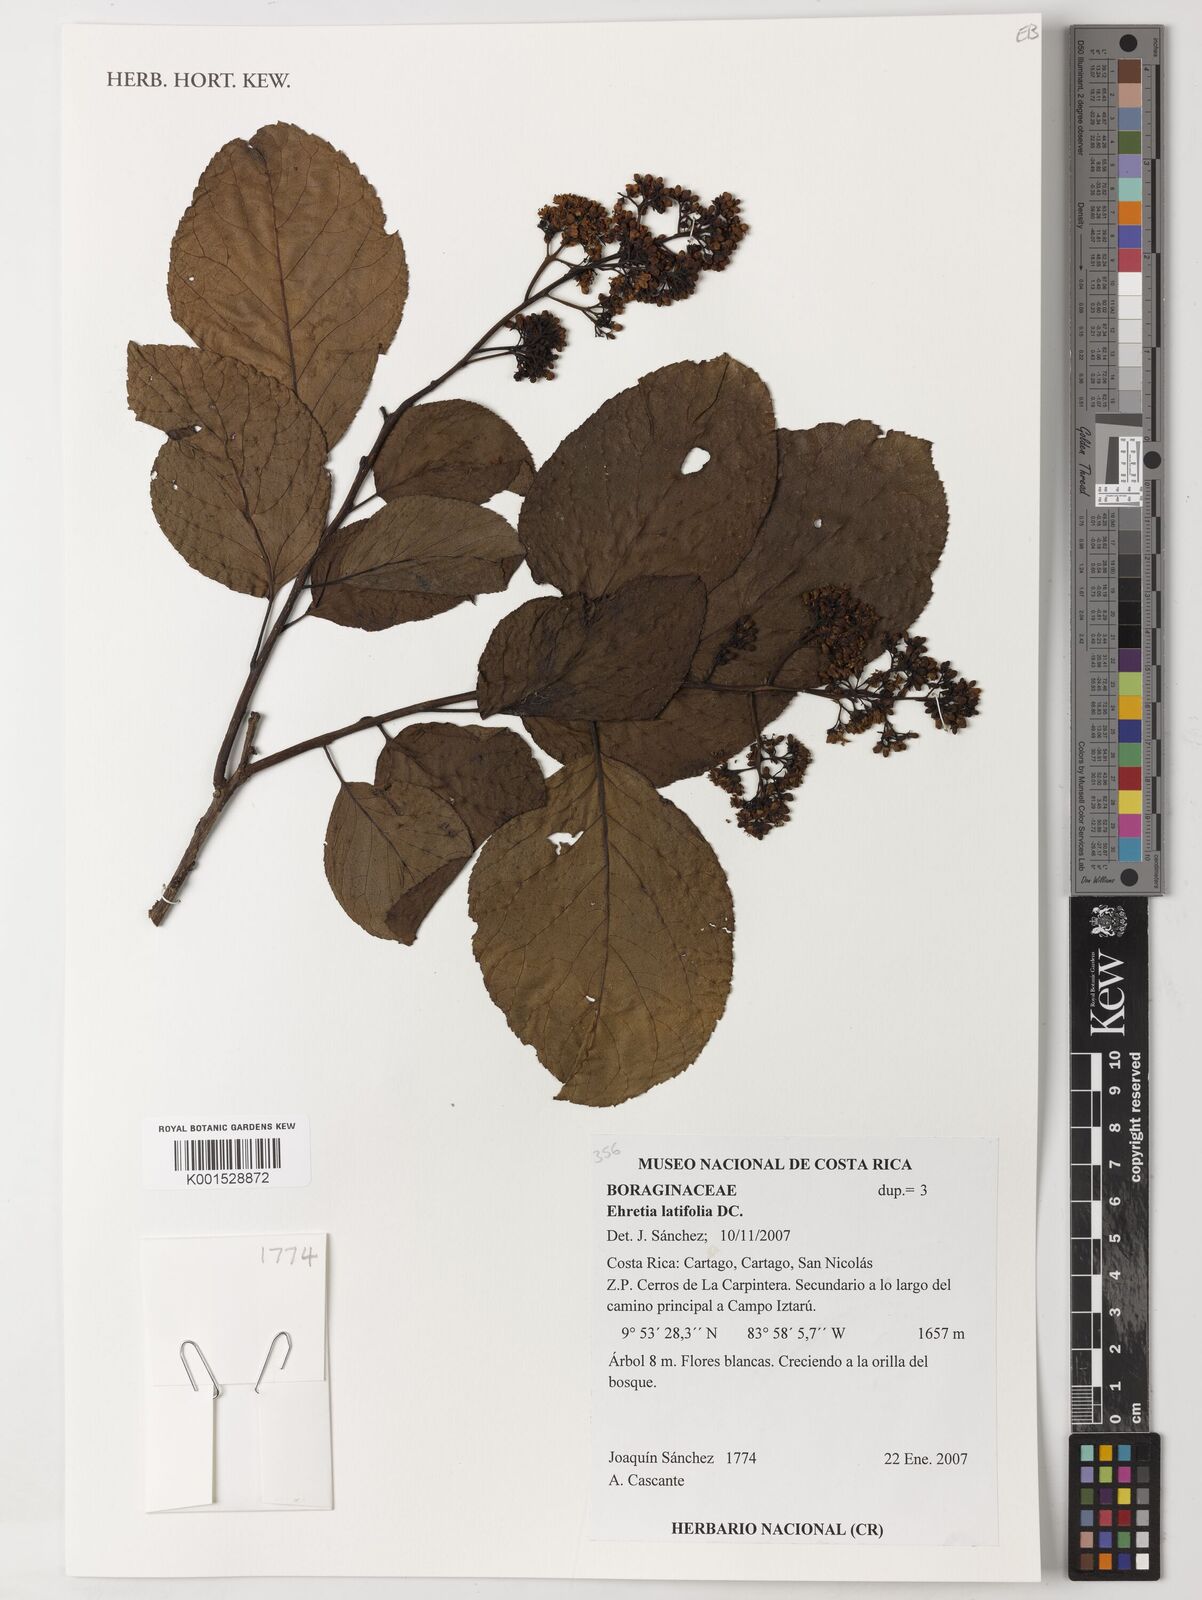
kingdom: Plantae
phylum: Tracheophyta
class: Magnoliopsida
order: Boraginales
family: Ehretiaceae
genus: Ehretia
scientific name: Ehretia latifolia
